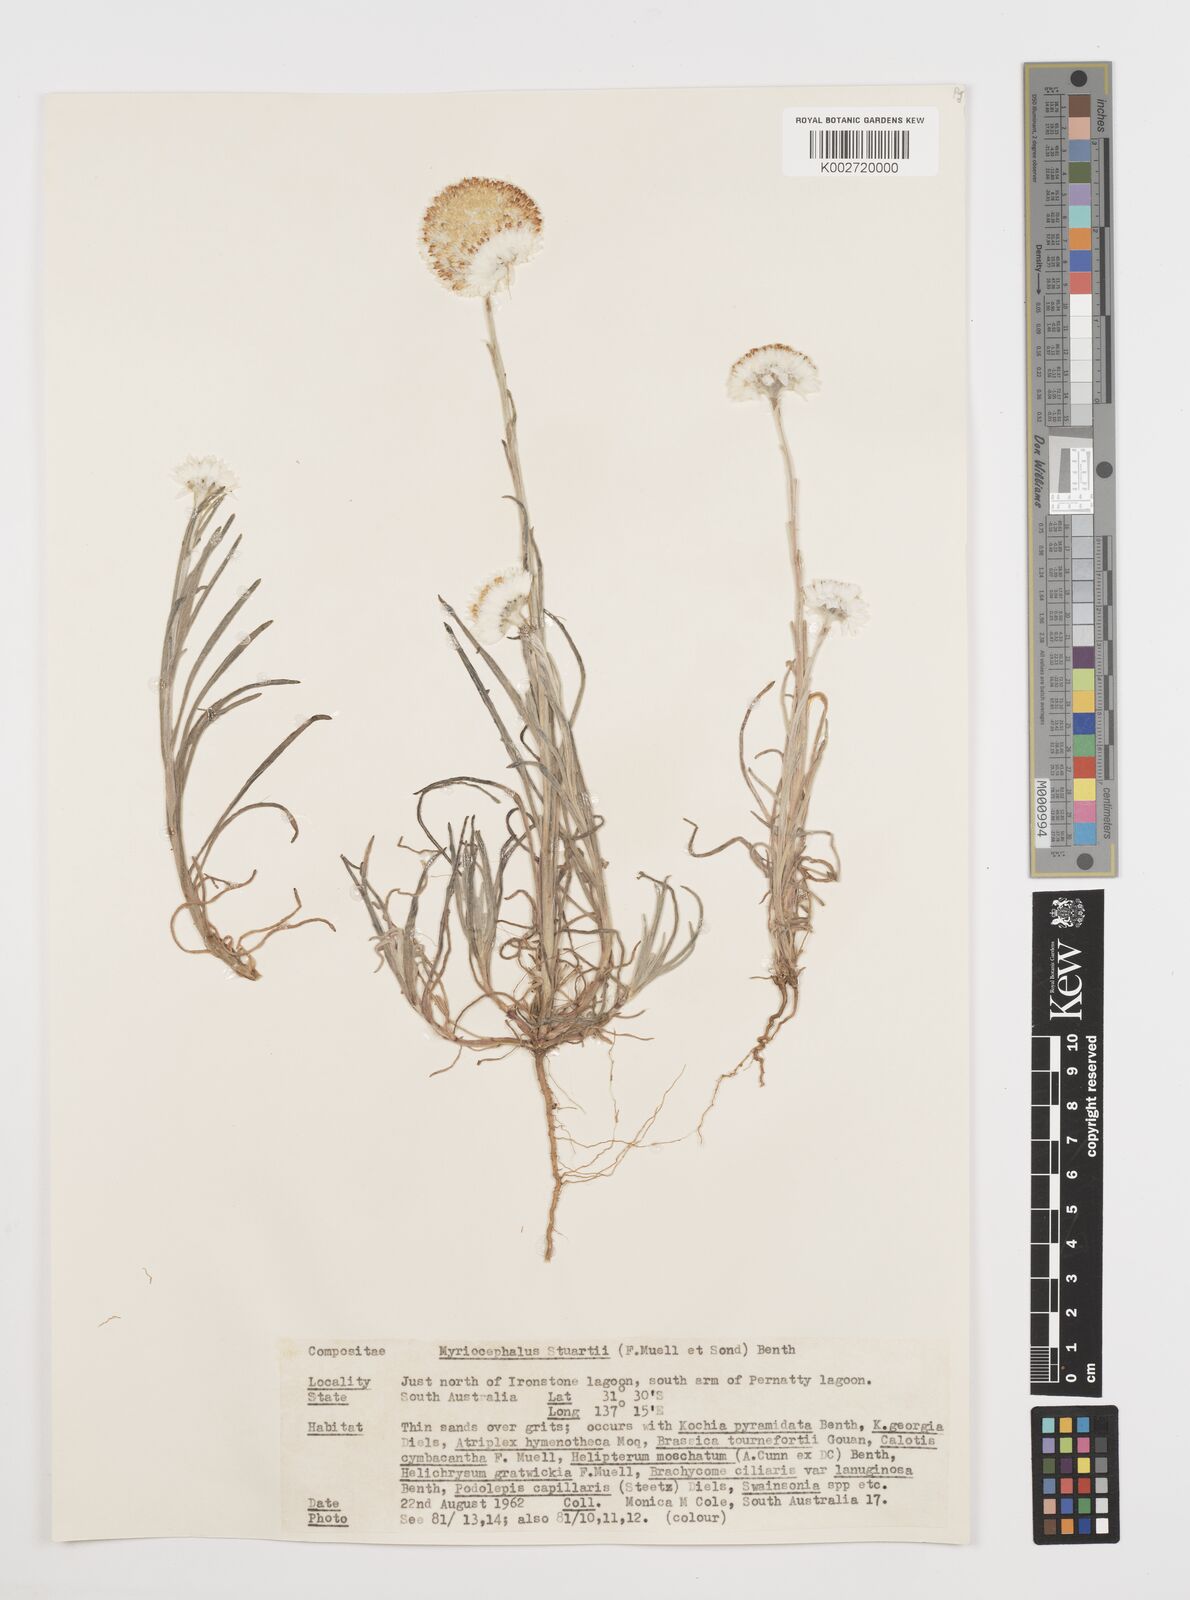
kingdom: Plantae
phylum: Tracheophyta
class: Magnoliopsida
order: Asterales
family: Asteraceae
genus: Polycalymma
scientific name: Polycalymma stuartii
